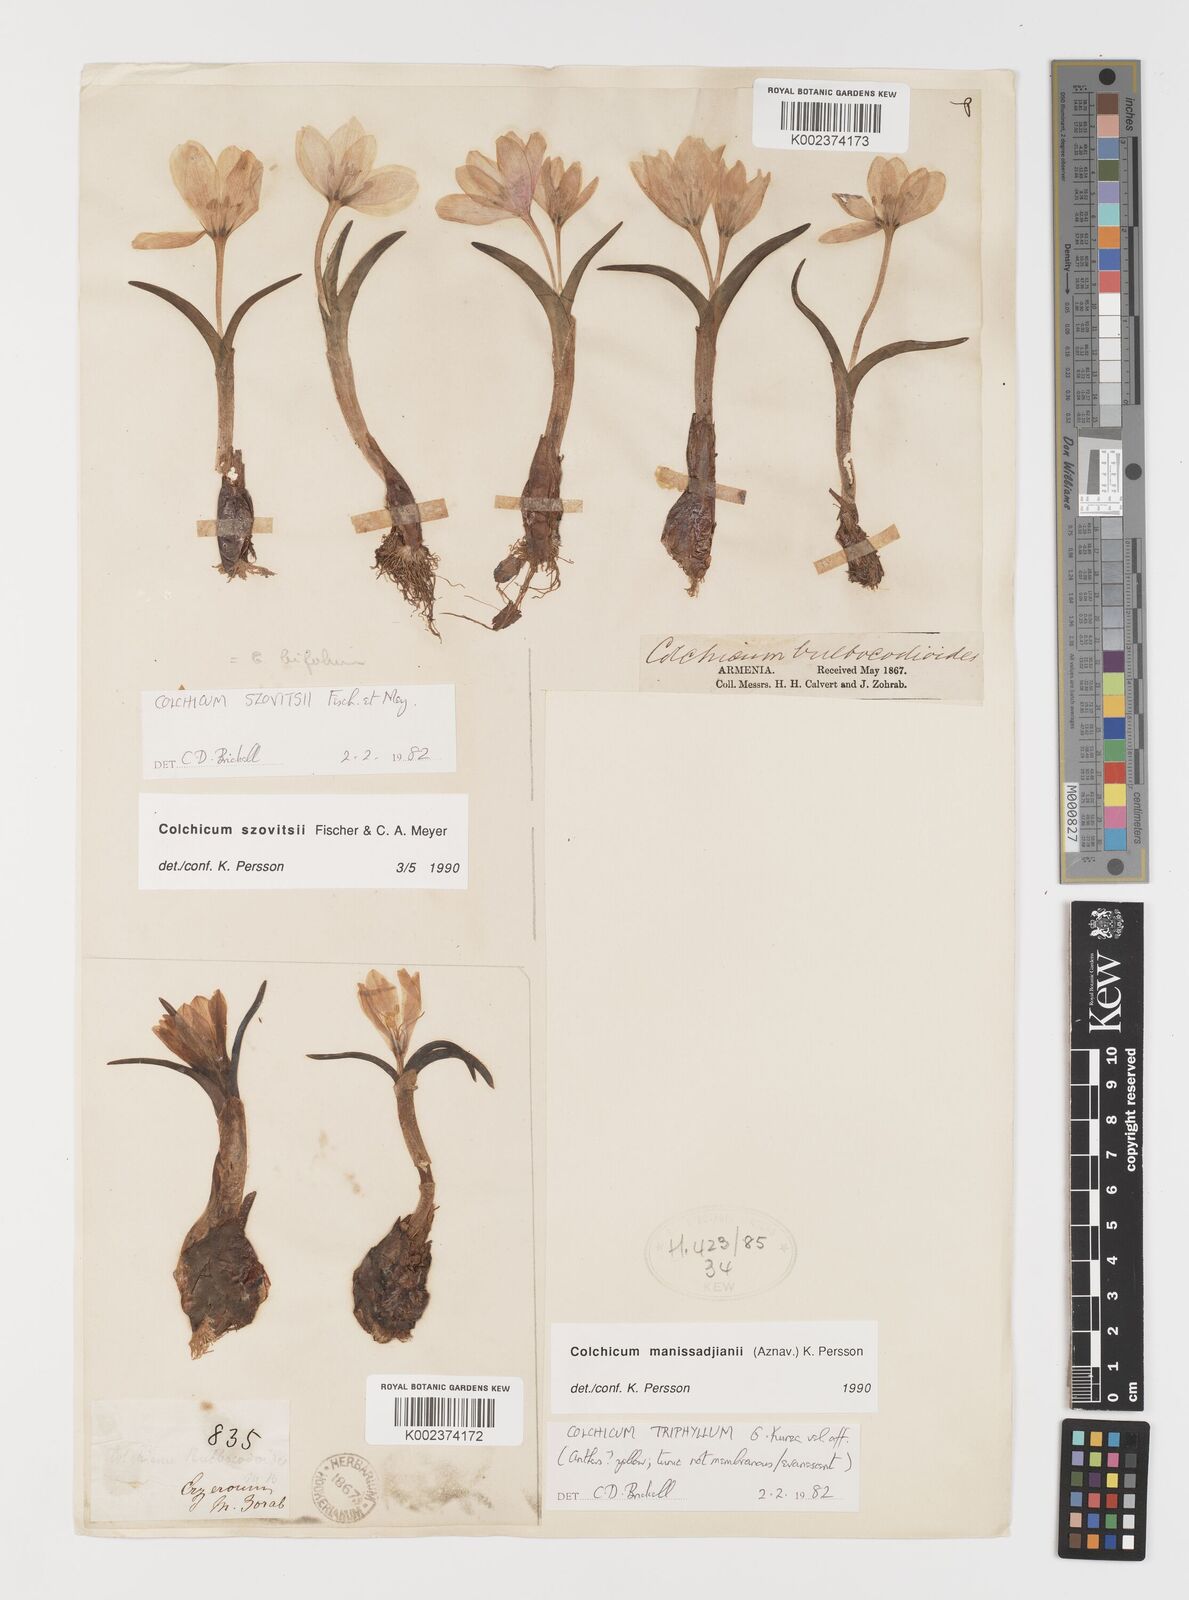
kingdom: Plantae
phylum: Tracheophyta
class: Liliopsida
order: Liliales
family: Colchicaceae
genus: Colchicum
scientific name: Colchicum manissadjianii
